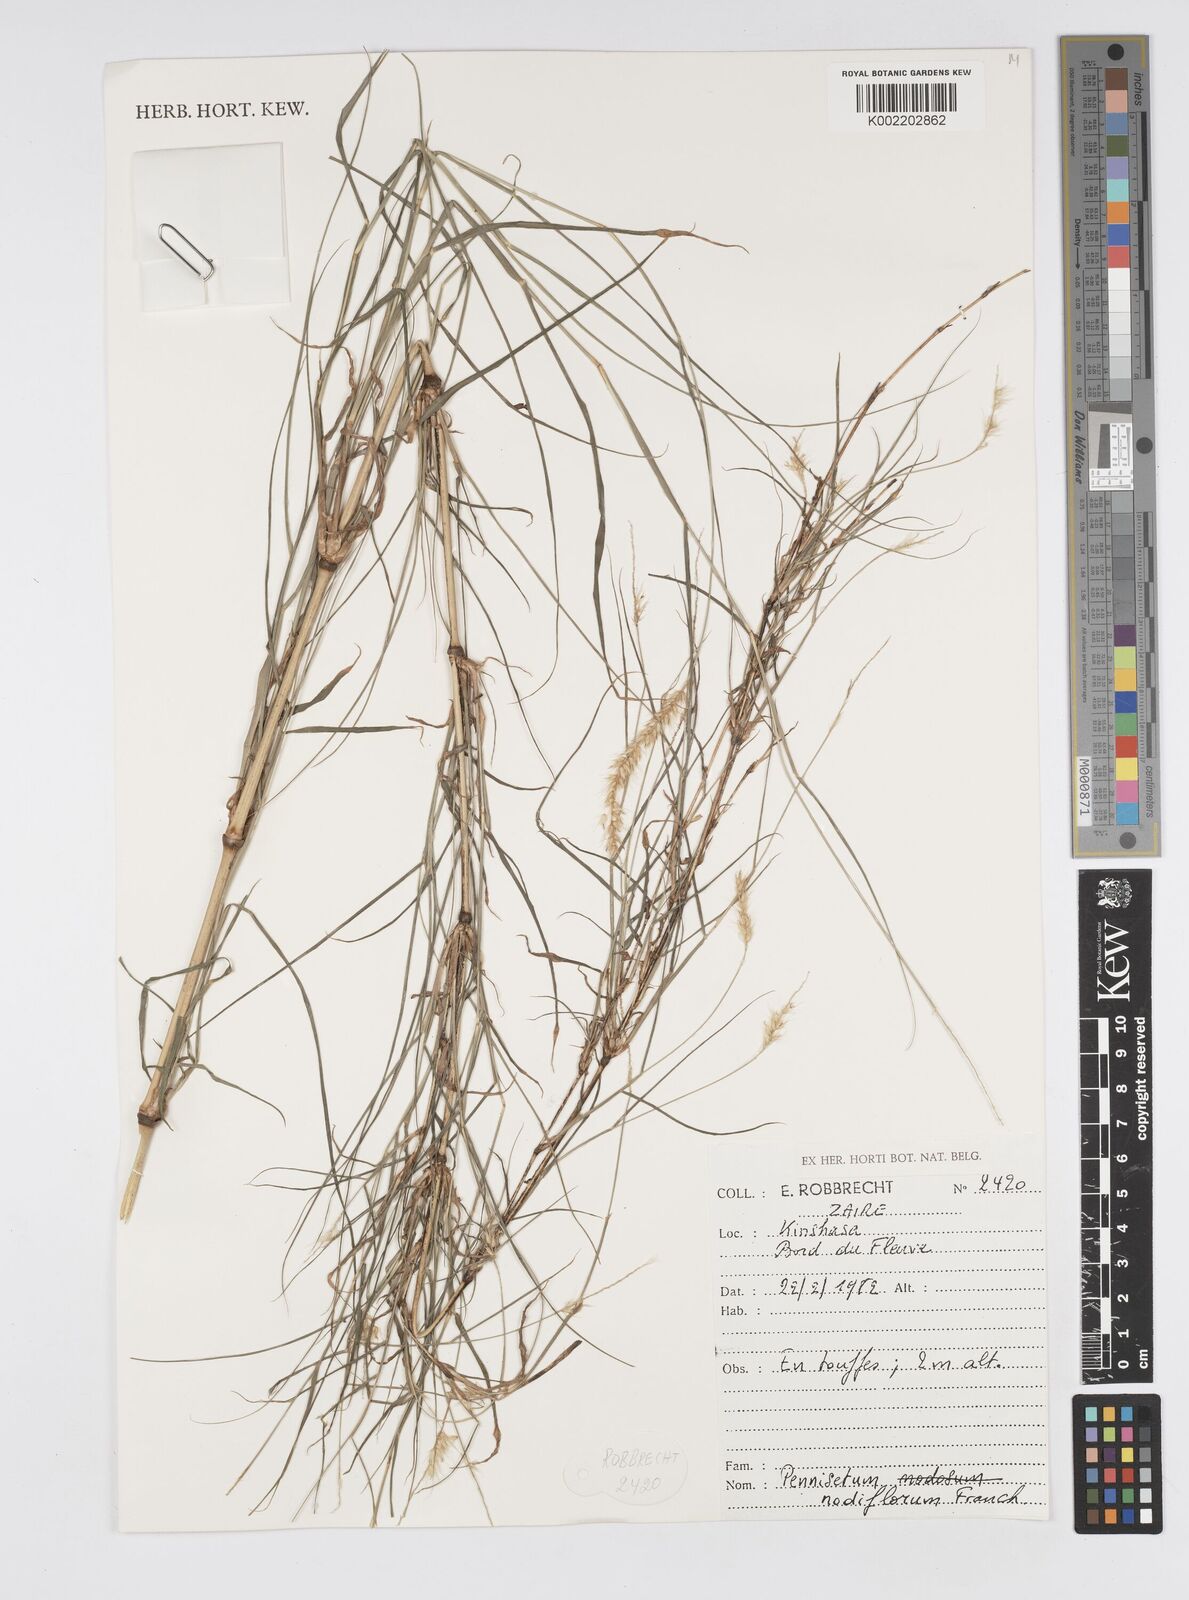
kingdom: Plantae
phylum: Tracheophyta
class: Liliopsida
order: Poales
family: Poaceae
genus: Cenchrus
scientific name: Cenchrus nodiflorus
